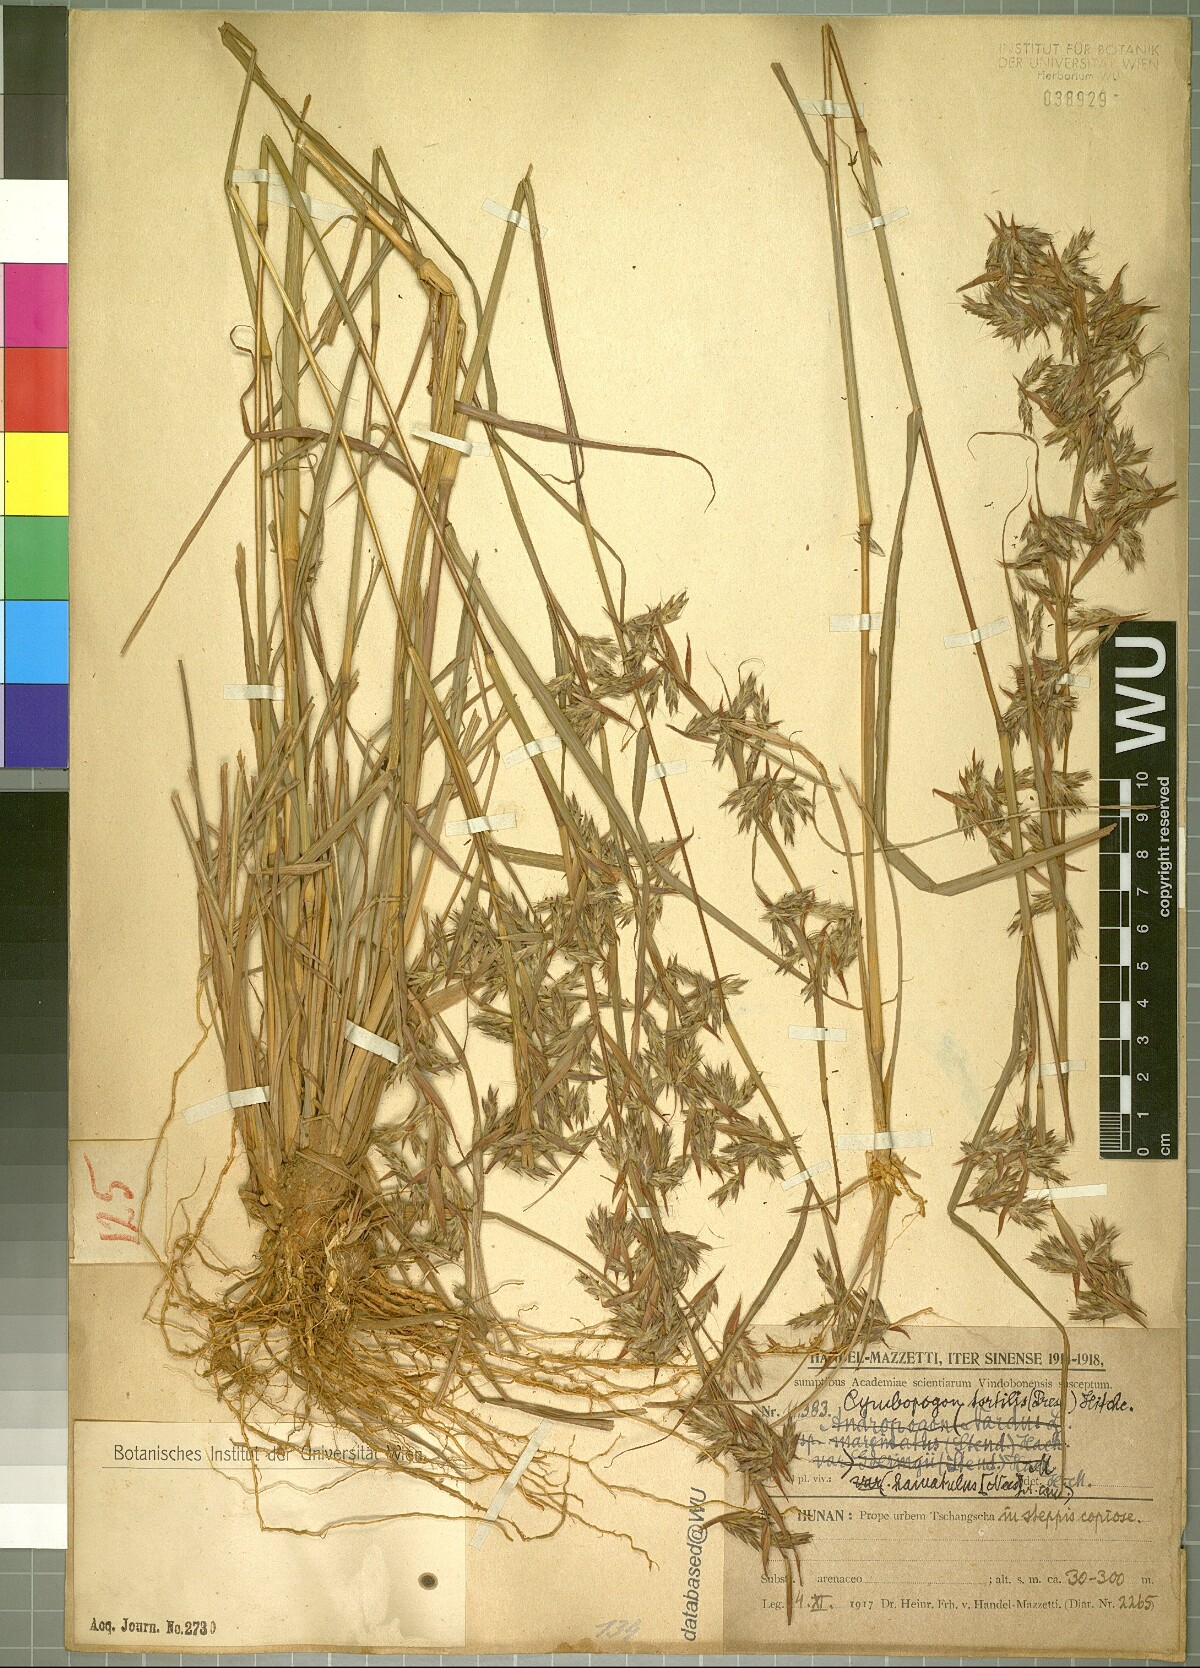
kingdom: Plantae
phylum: Tracheophyta
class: Liliopsida
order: Poales
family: Poaceae
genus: Cymbopogon
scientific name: Cymbopogon tortilis
